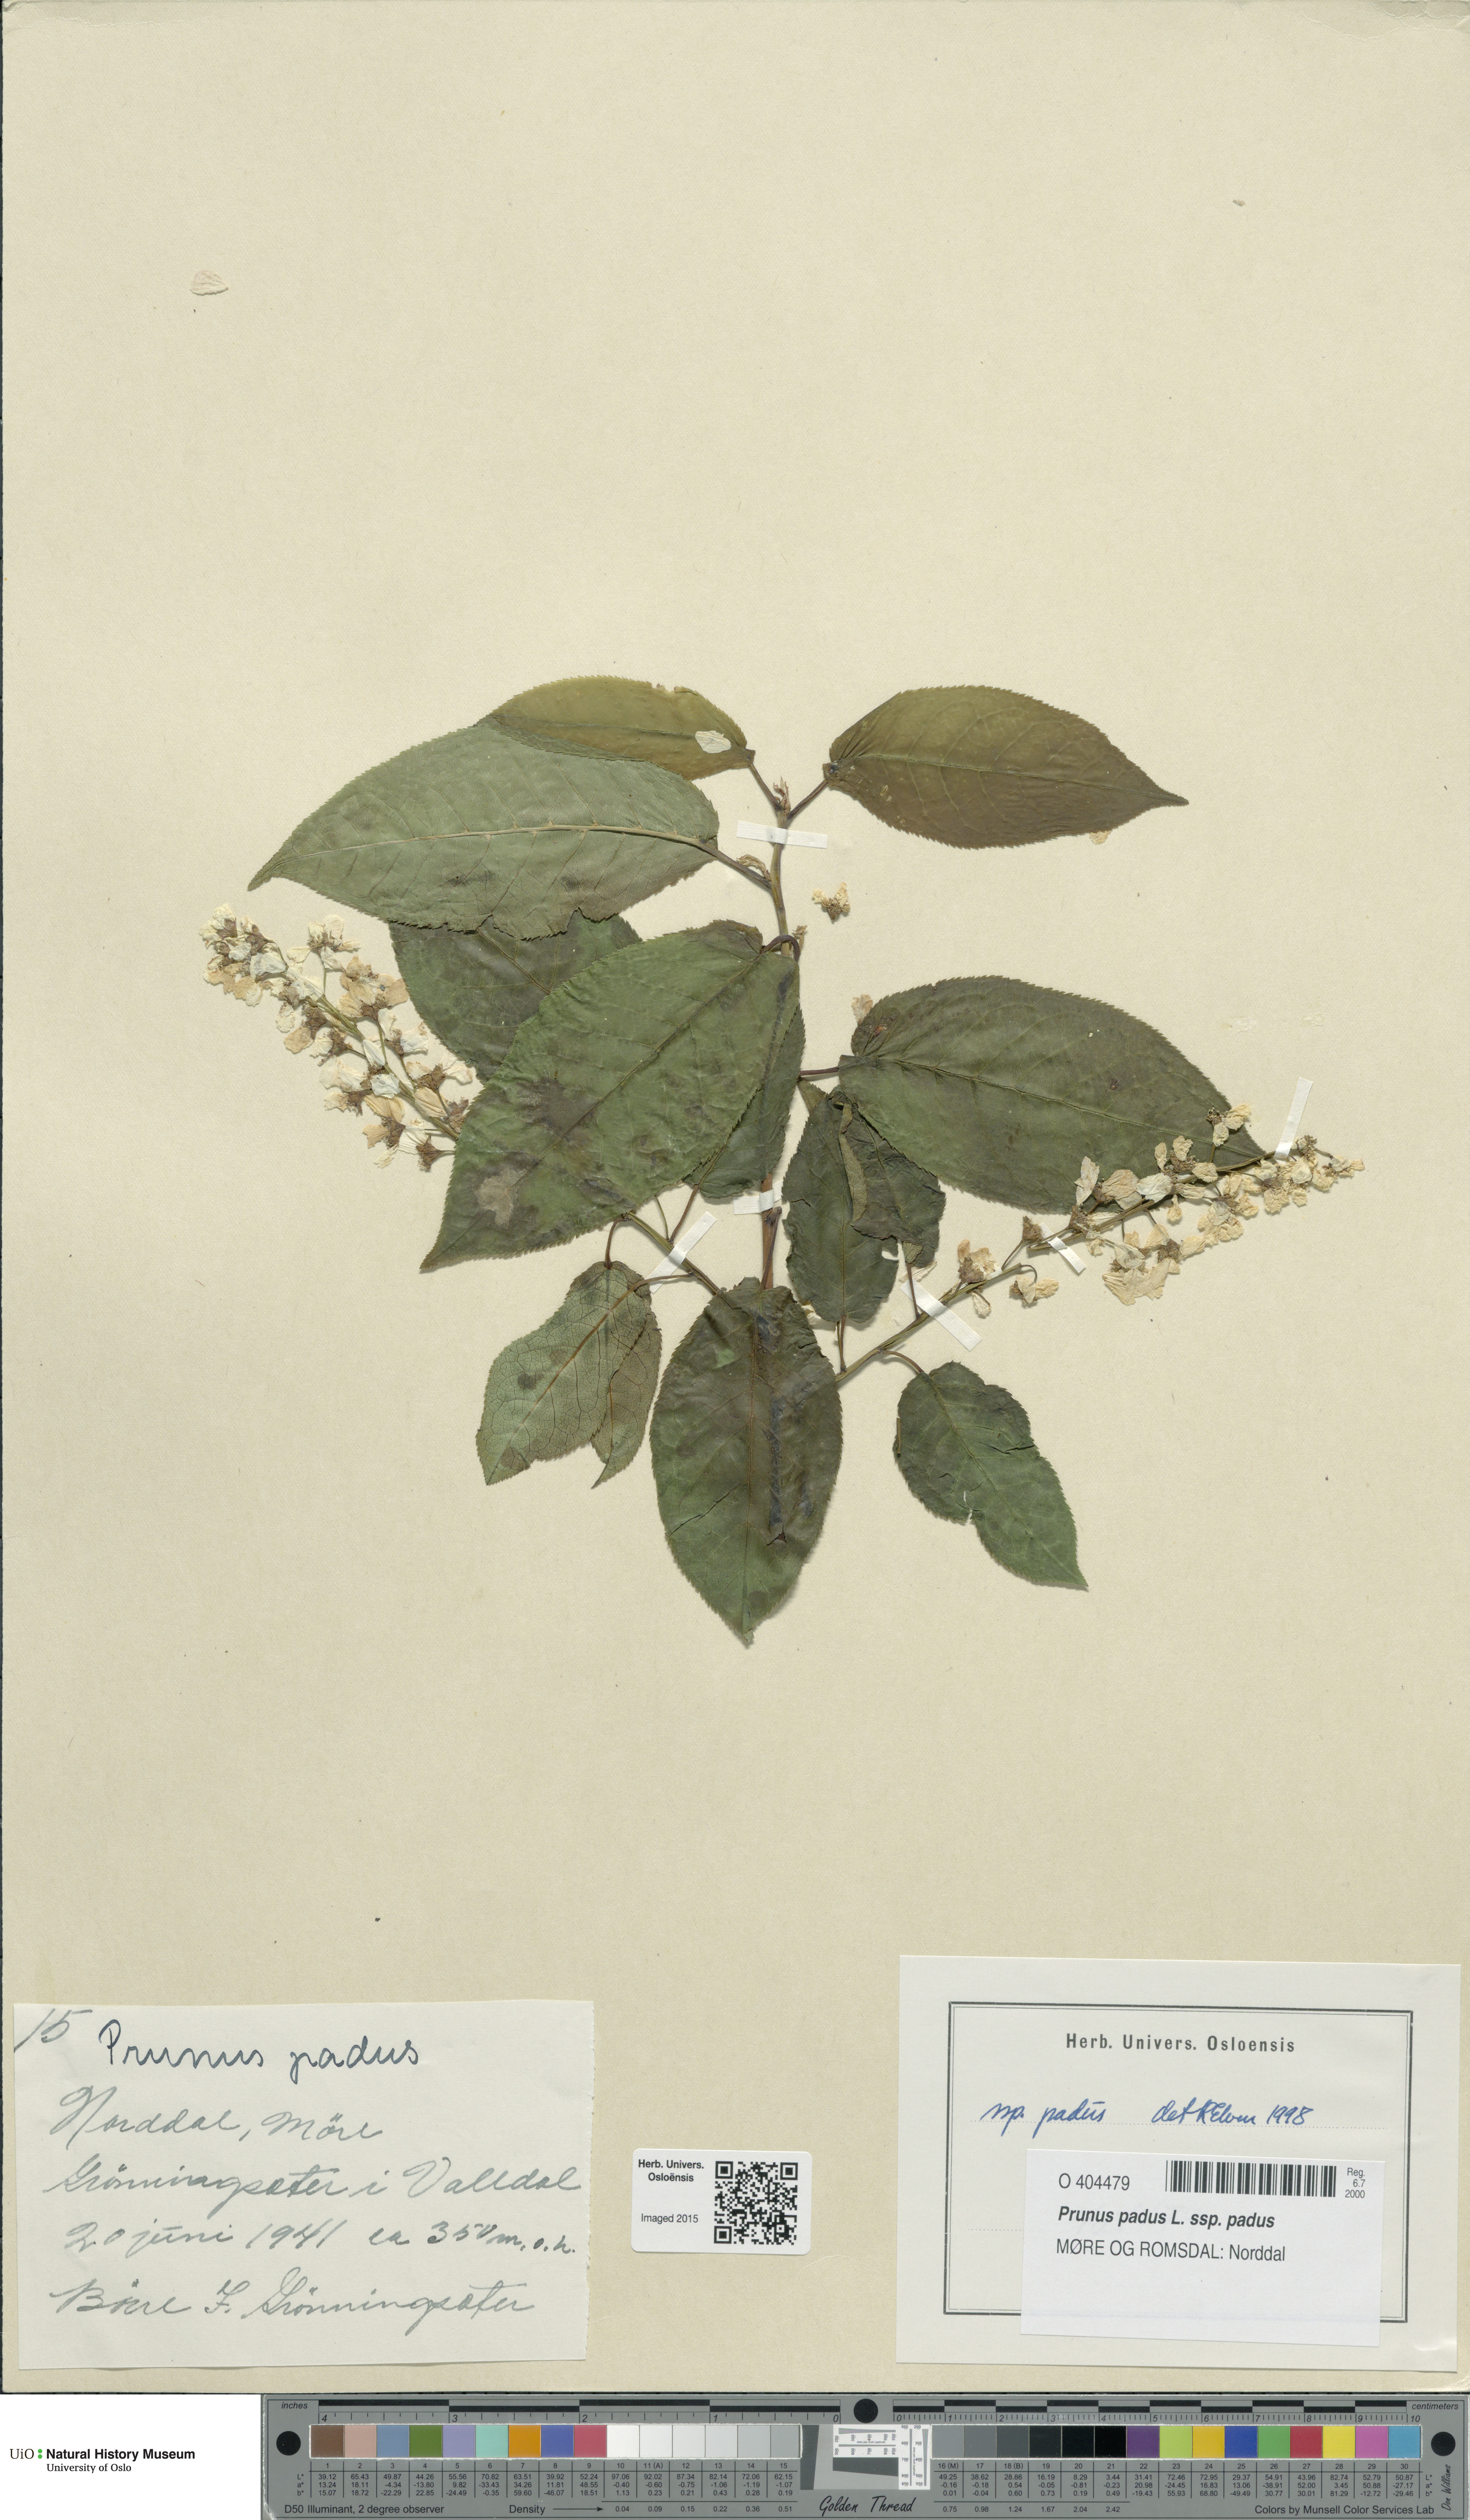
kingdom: Plantae
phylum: Tracheophyta
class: Magnoliopsida
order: Rosales
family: Rosaceae
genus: Prunus
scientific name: Prunus padus
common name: Bird cherry
